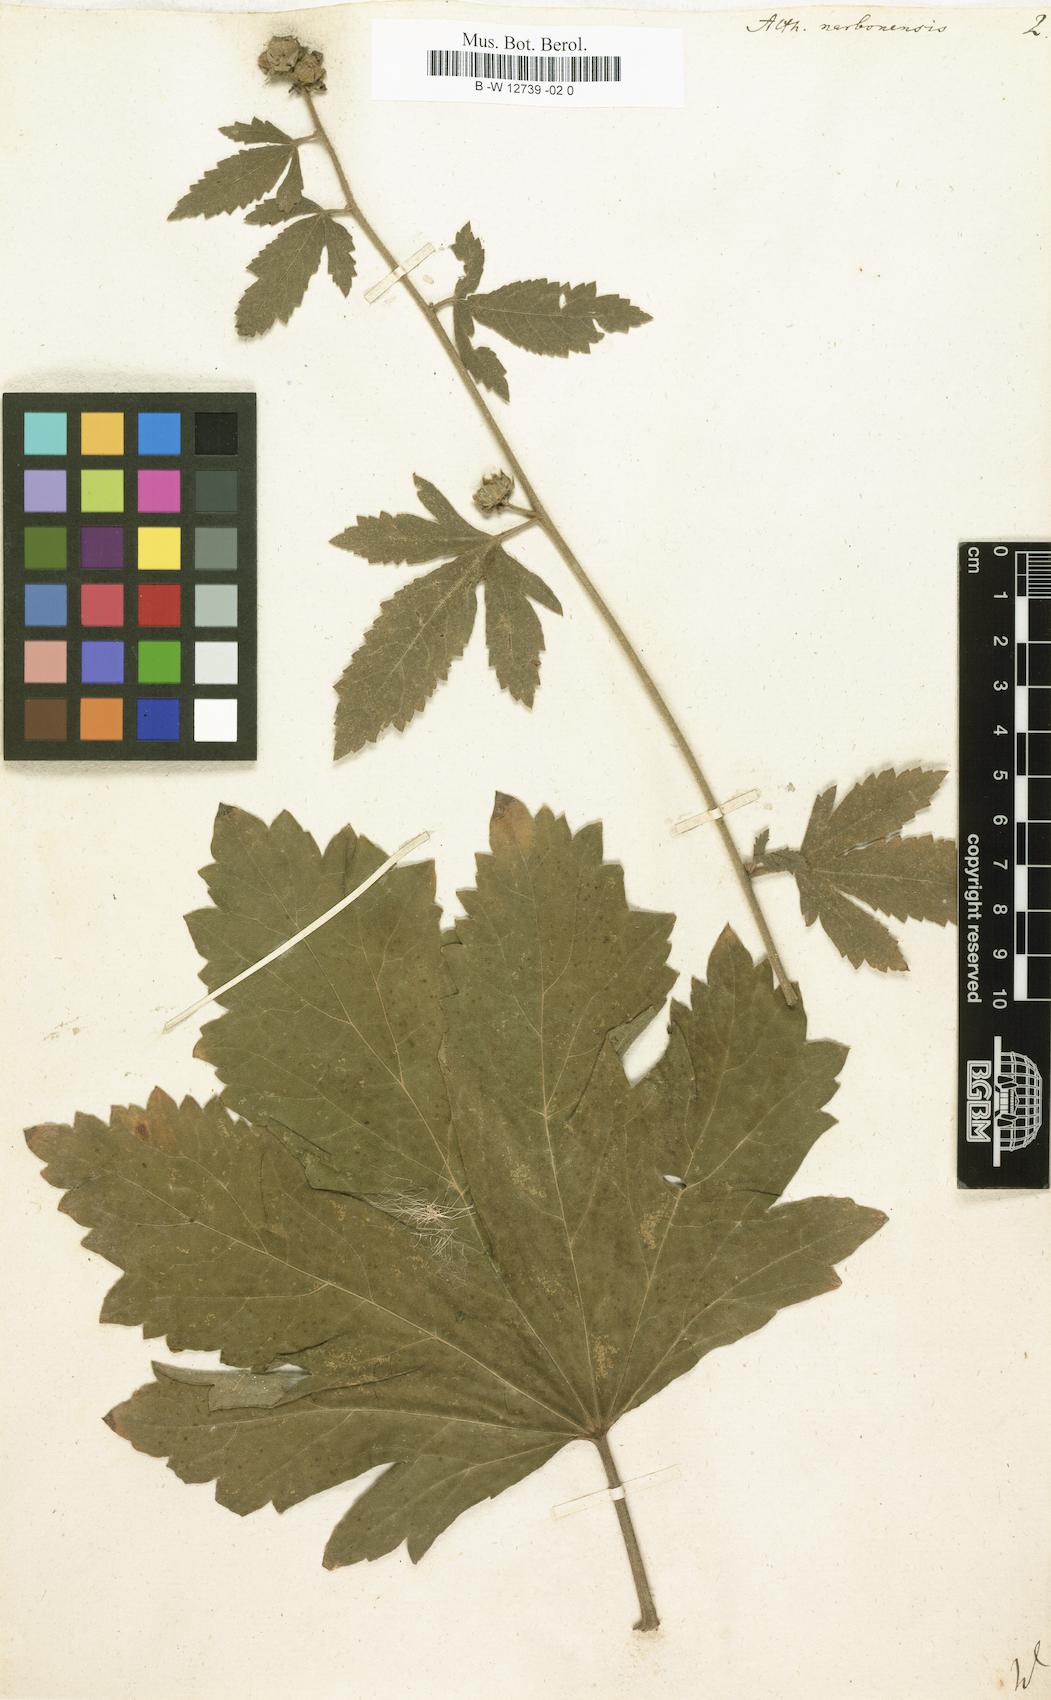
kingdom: Plantae
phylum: Tracheophyta
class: Magnoliopsida
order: Malvales
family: Malvaceae
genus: Althaea
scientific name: Althaea cannabina
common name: Palm-leaf marshmallow
